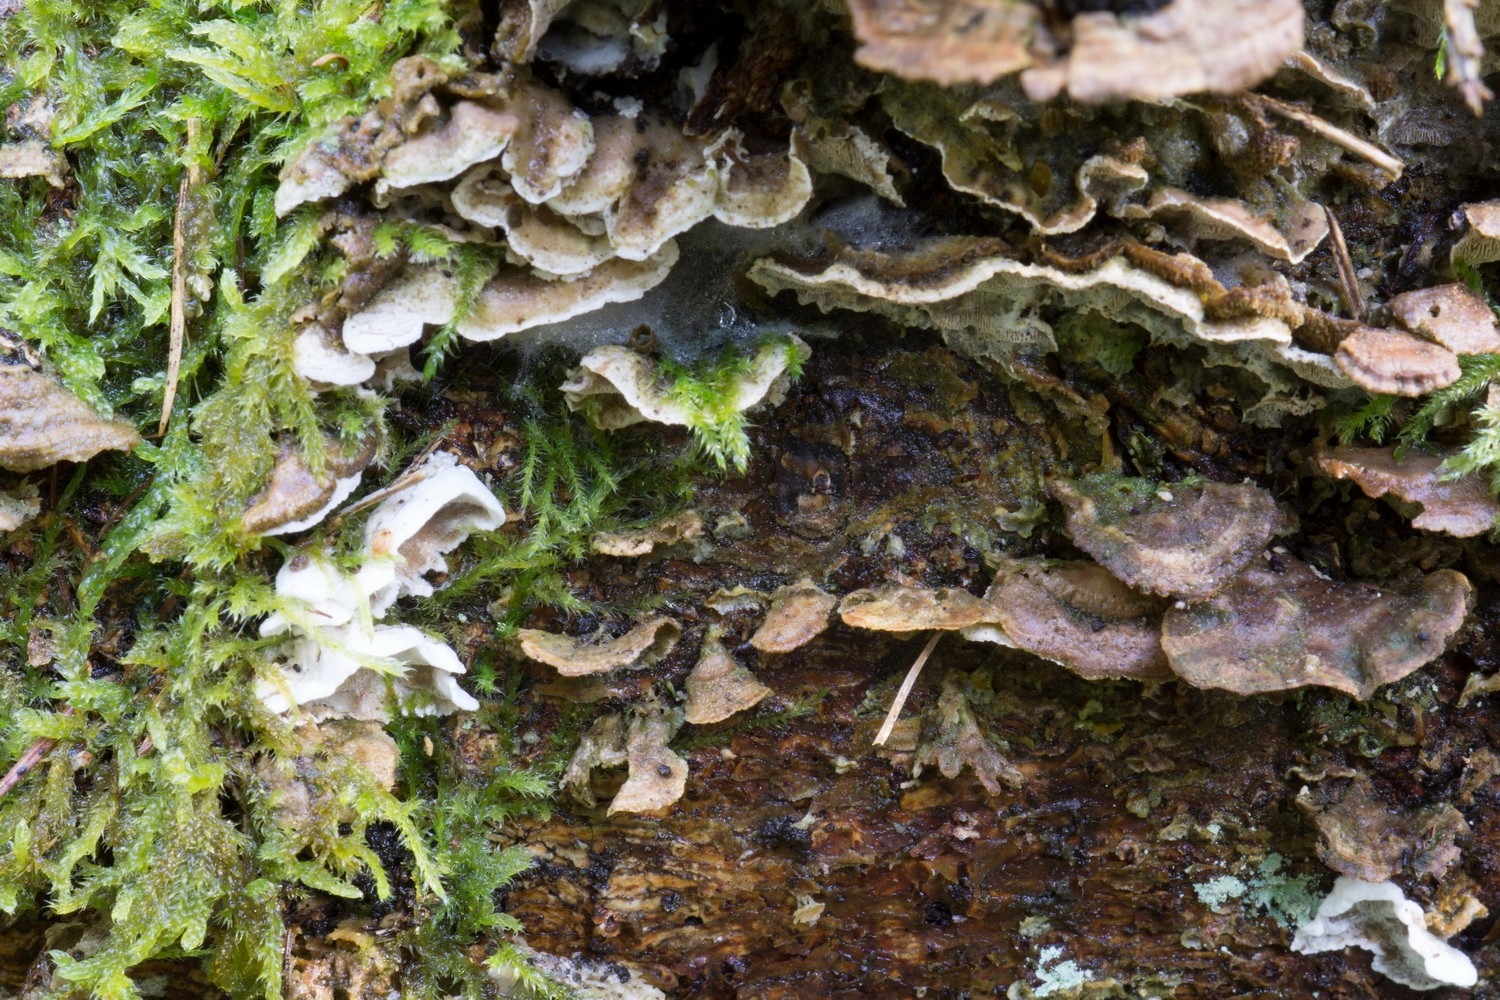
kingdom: Fungi
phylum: Basidiomycota
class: Agaricomycetes
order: Polyporales
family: Incrustoporiaceae
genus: Skeletocutis
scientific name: Skeletocutis carneogrisea
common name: rødgrå krystalporesvamp
